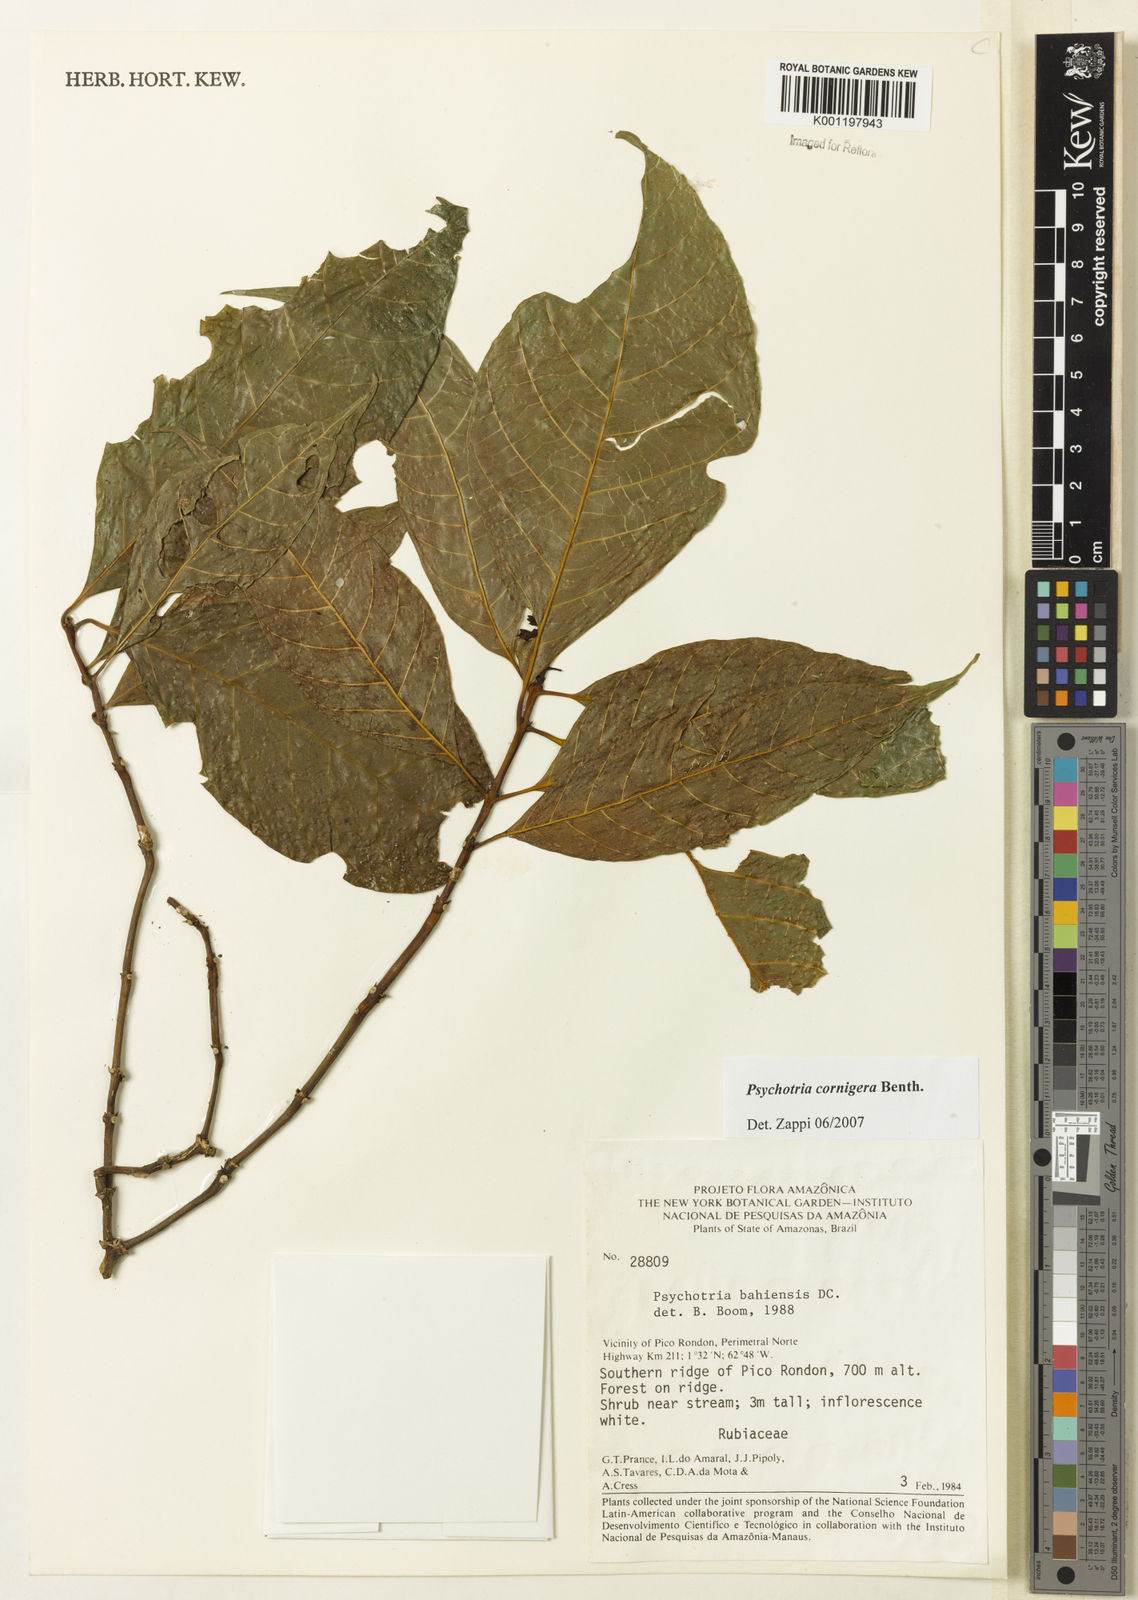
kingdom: Plantae
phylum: Tracheophyta
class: Magnoliopsida
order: Gentianales
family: Rubiaceae
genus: Psychotria
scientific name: Psychotria bahiensis
